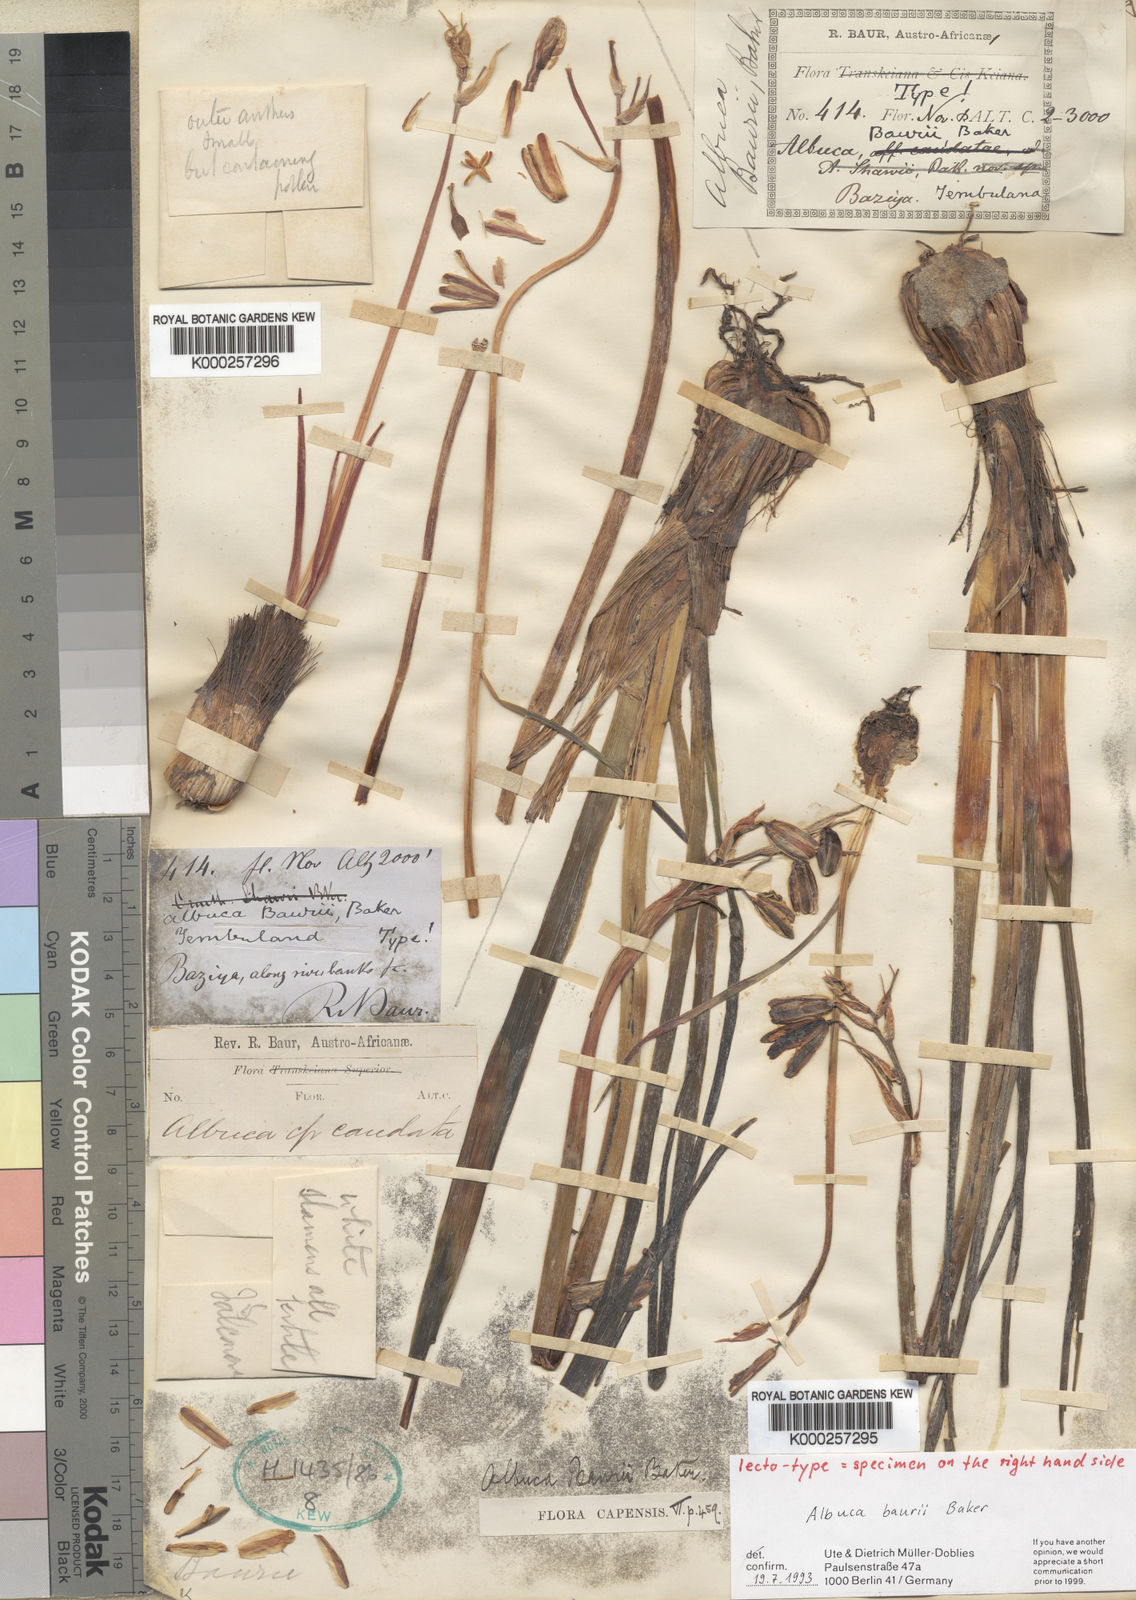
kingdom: Plantae
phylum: Tracheophyta
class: Liliopsida
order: Asparagales
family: Asparagaceae
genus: Albuca
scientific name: Albuca setosa
